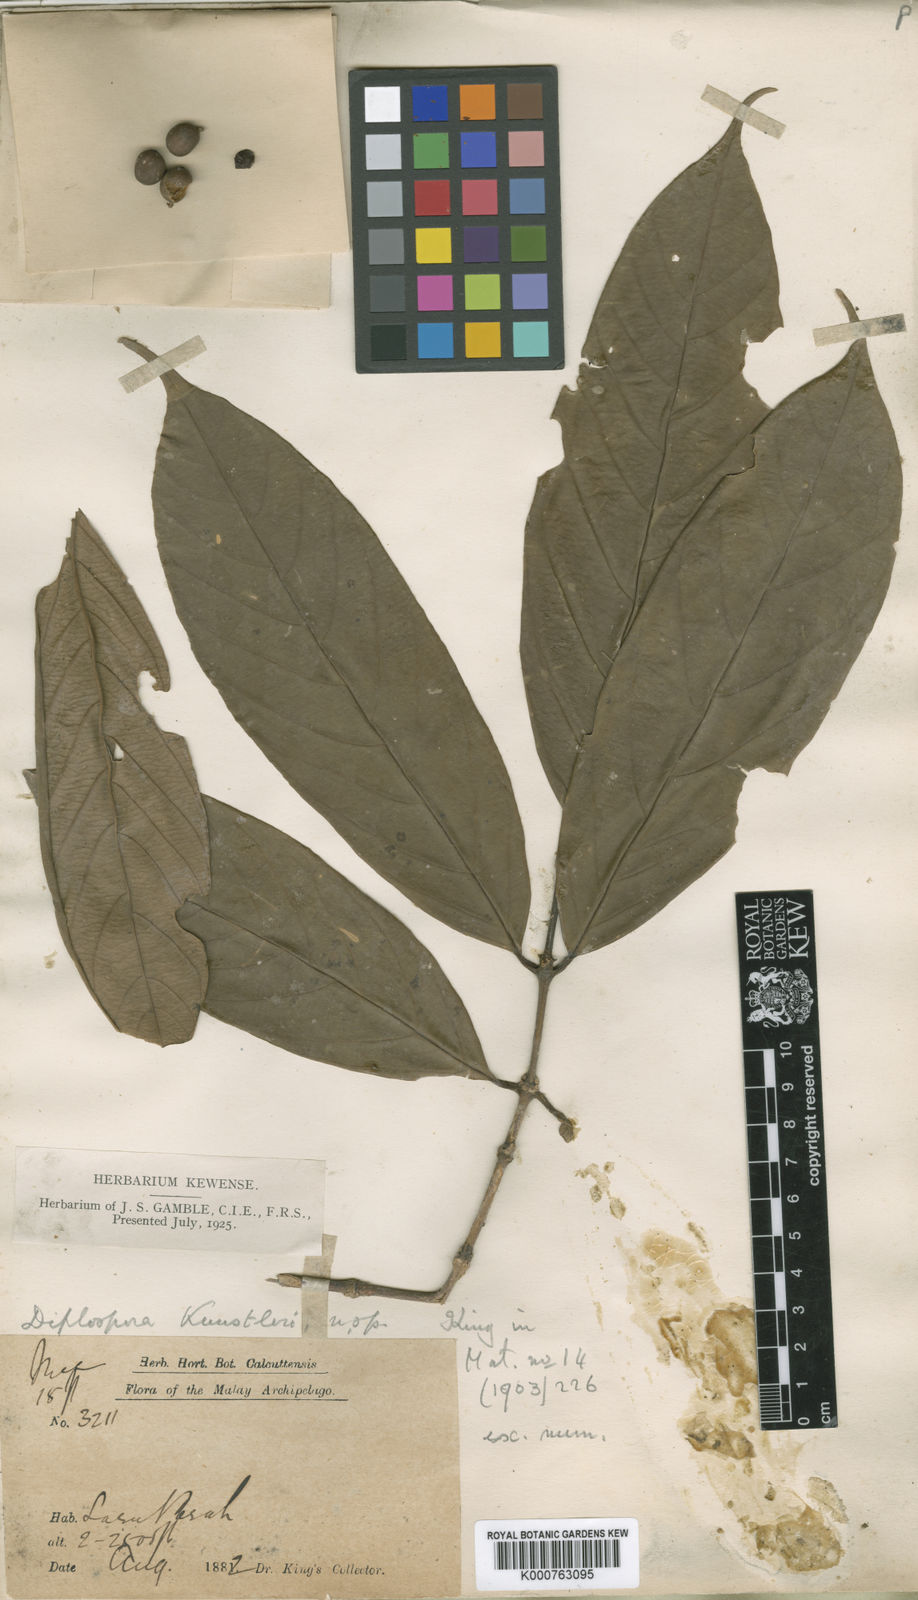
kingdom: Plantae
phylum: Tracheophyta
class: Magnoliopsida
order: Gentianales
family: Rubiaceae
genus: Diplospora
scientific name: Diplospora kunstleri
